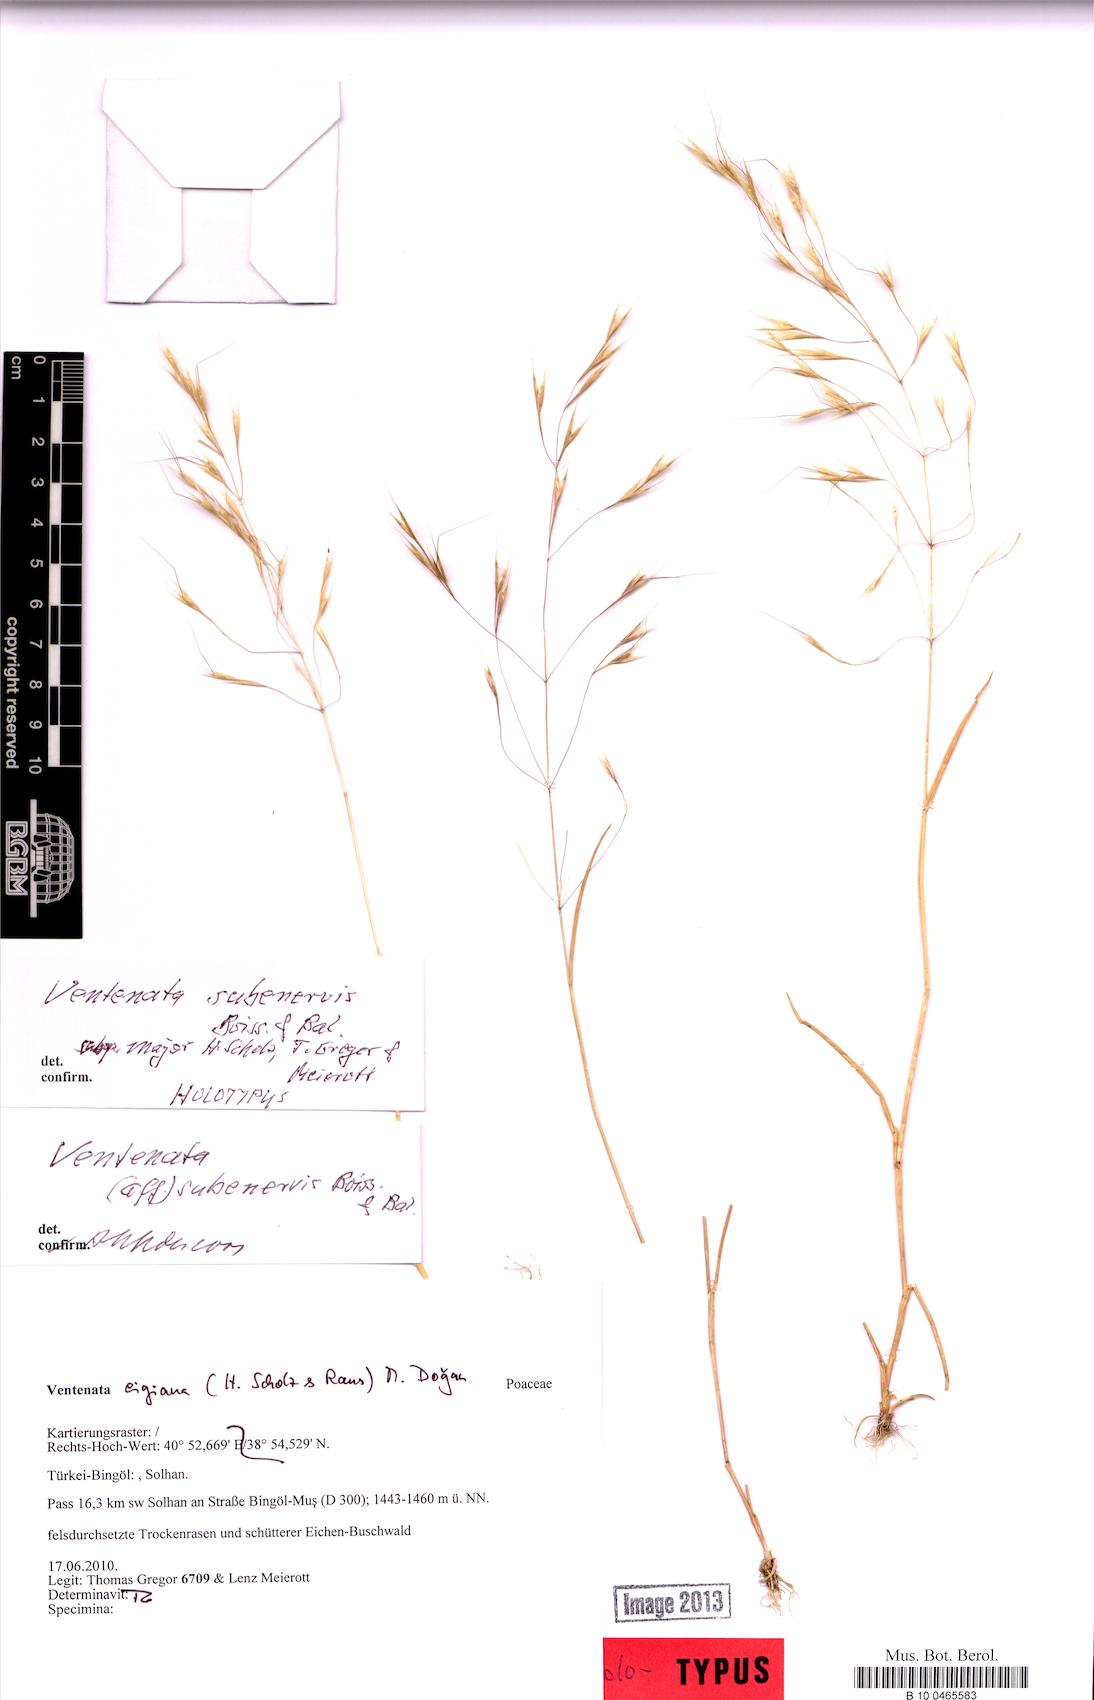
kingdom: Plantae
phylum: Tracheophyta
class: Liliopsida
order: Poales
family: Poaceae
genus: Ventenata
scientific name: Ventenata subenervis
